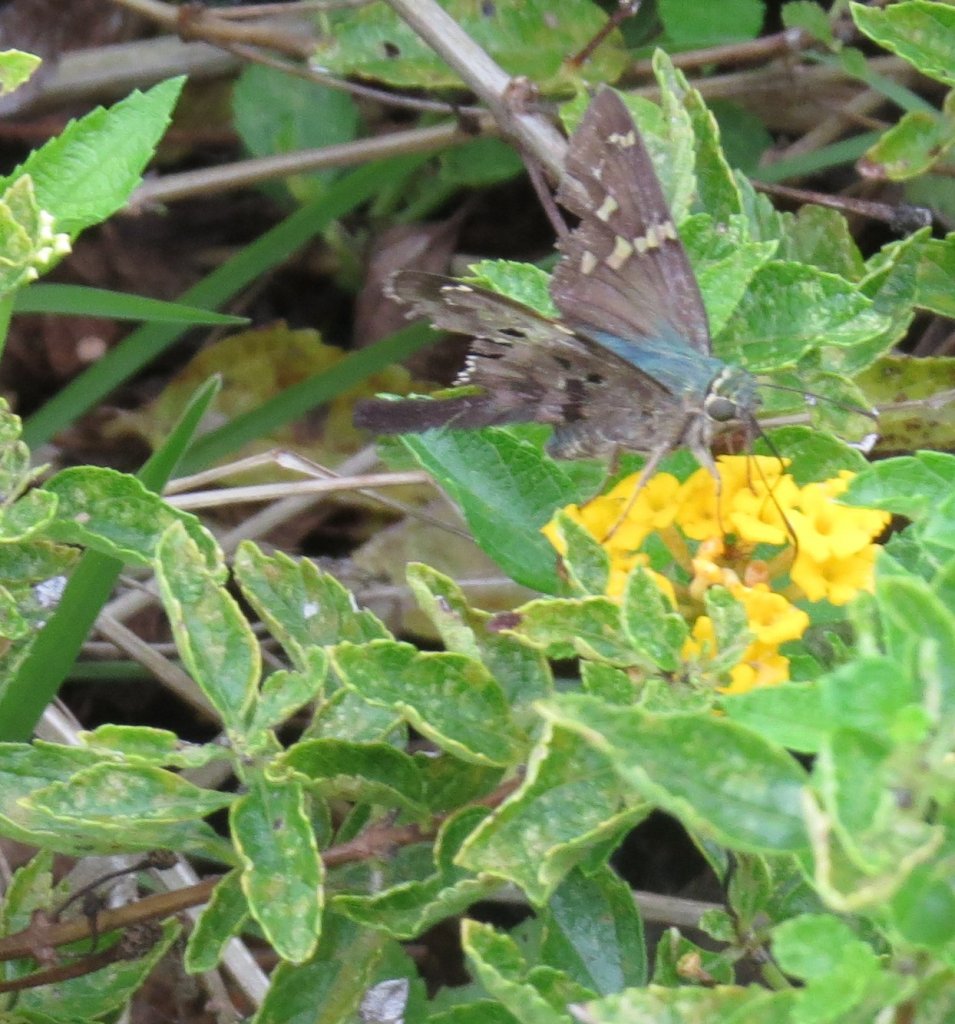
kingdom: Animalia
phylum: Arthropoda
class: Insecta
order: Lepidoptera
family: Hesperiidae
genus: Urbanus
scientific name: Urbanus proteus
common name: Long-tailed Skipper
